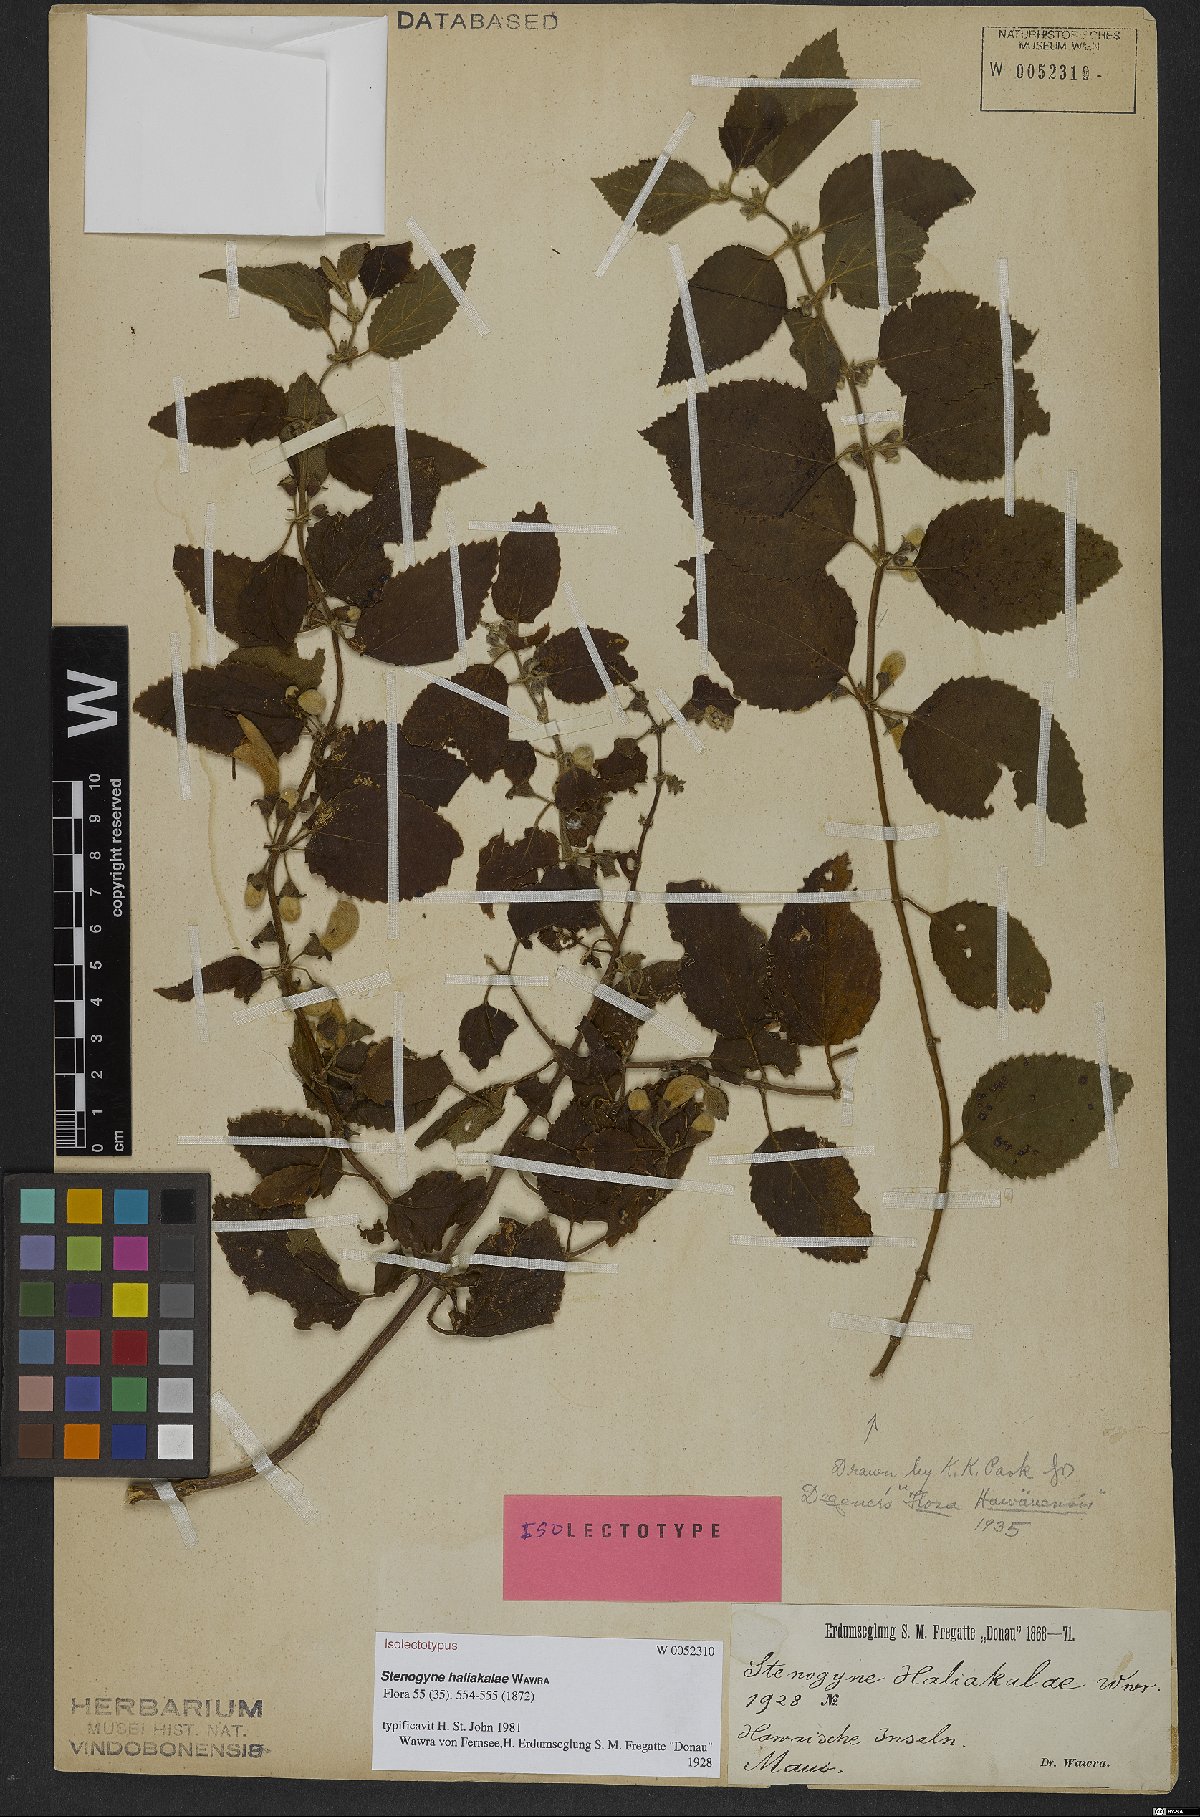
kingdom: Plantae
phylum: Tracheophyta
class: Magnoliopsida
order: Lamiales
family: Lamiaceae
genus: Stenogyne
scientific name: Stenogyne haliakalae
